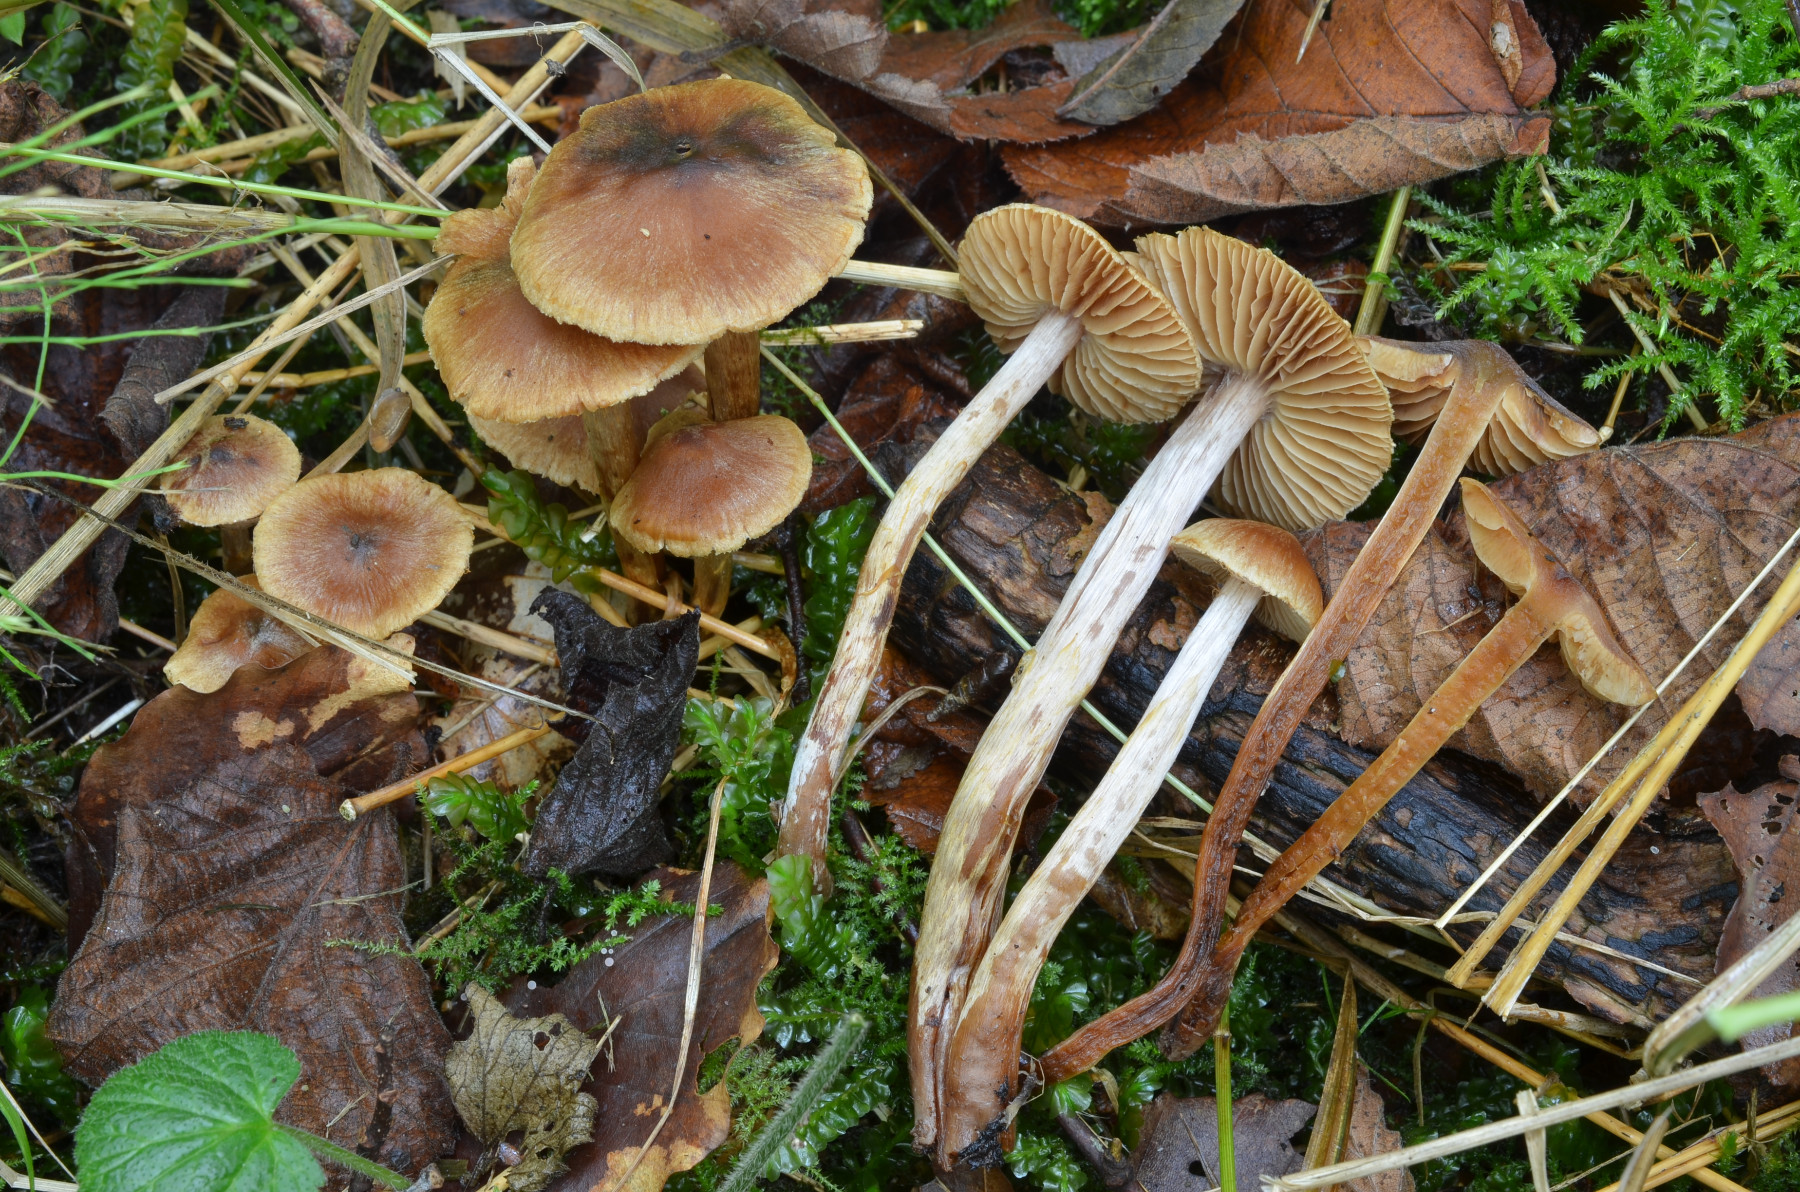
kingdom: Fungi
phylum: Basidiomycota
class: Agaricomycetes
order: Agaricales
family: Cortinariaceae
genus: Cortinarius
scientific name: Cortinarius saniosus
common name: gultrævlet slørhat
